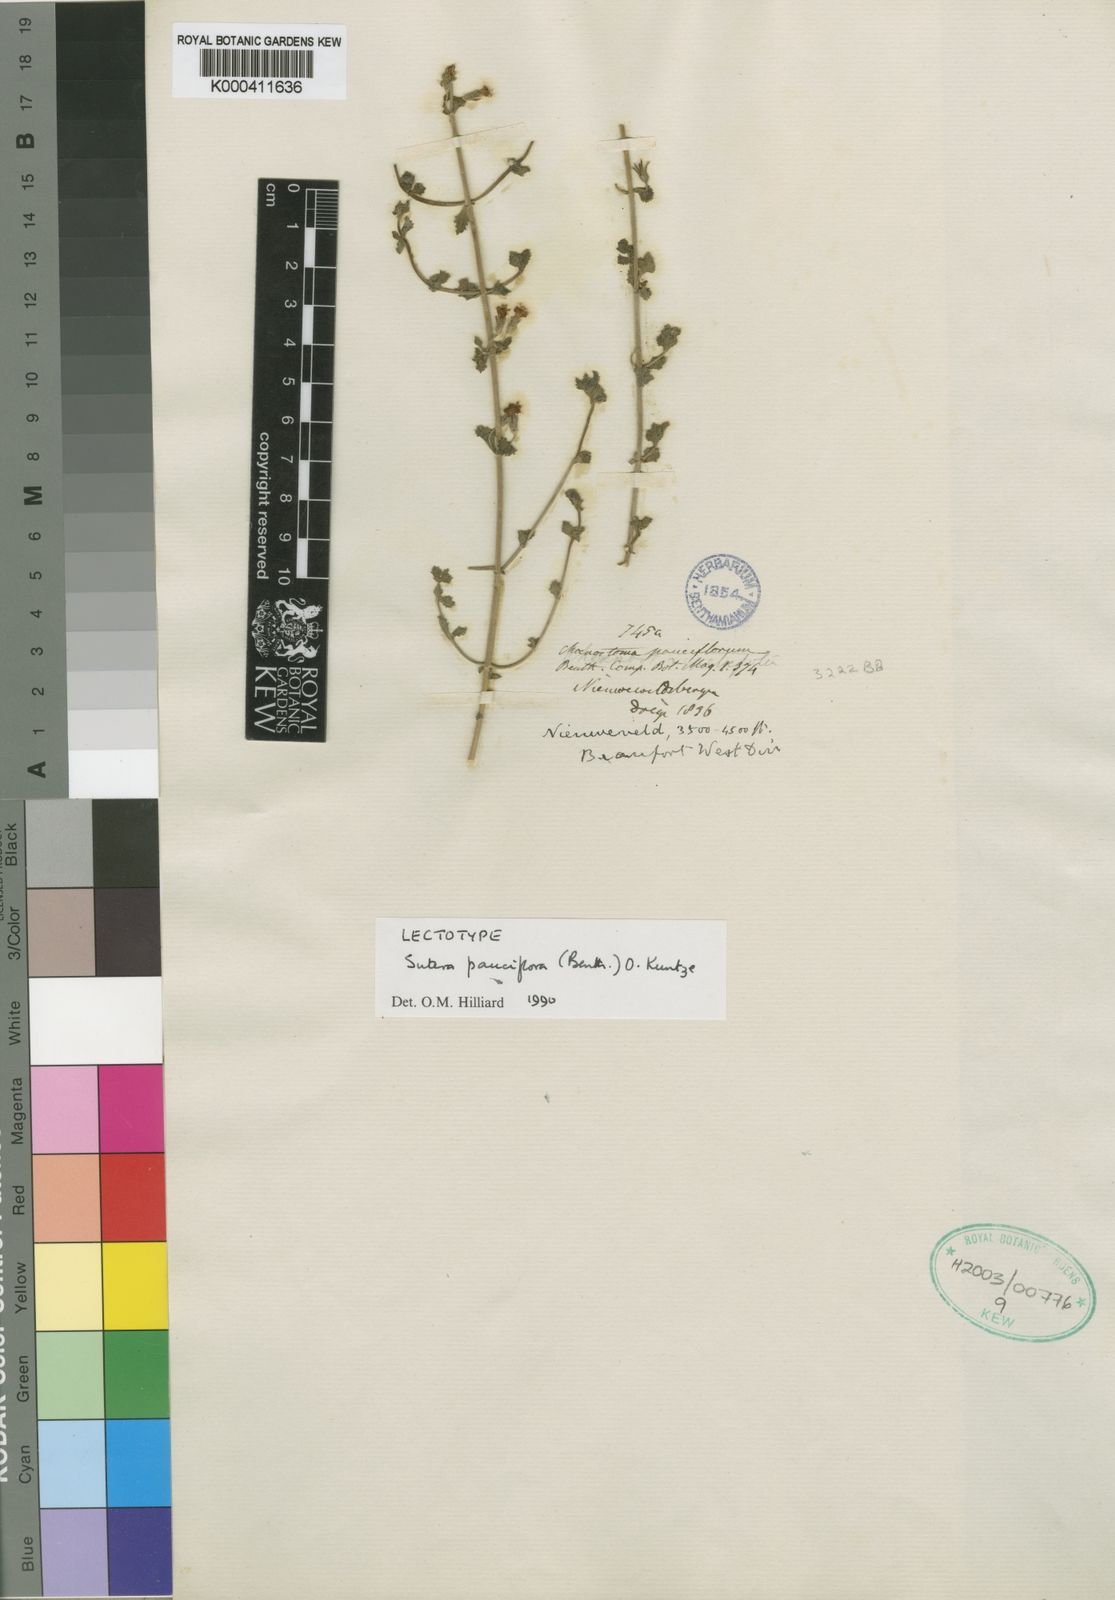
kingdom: Plantae
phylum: Tracheophyta
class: Magnoliopsida
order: Lamiales
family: Scrophulariaceae
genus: Chaenostoma
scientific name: Chaenostoma pauciflorum
